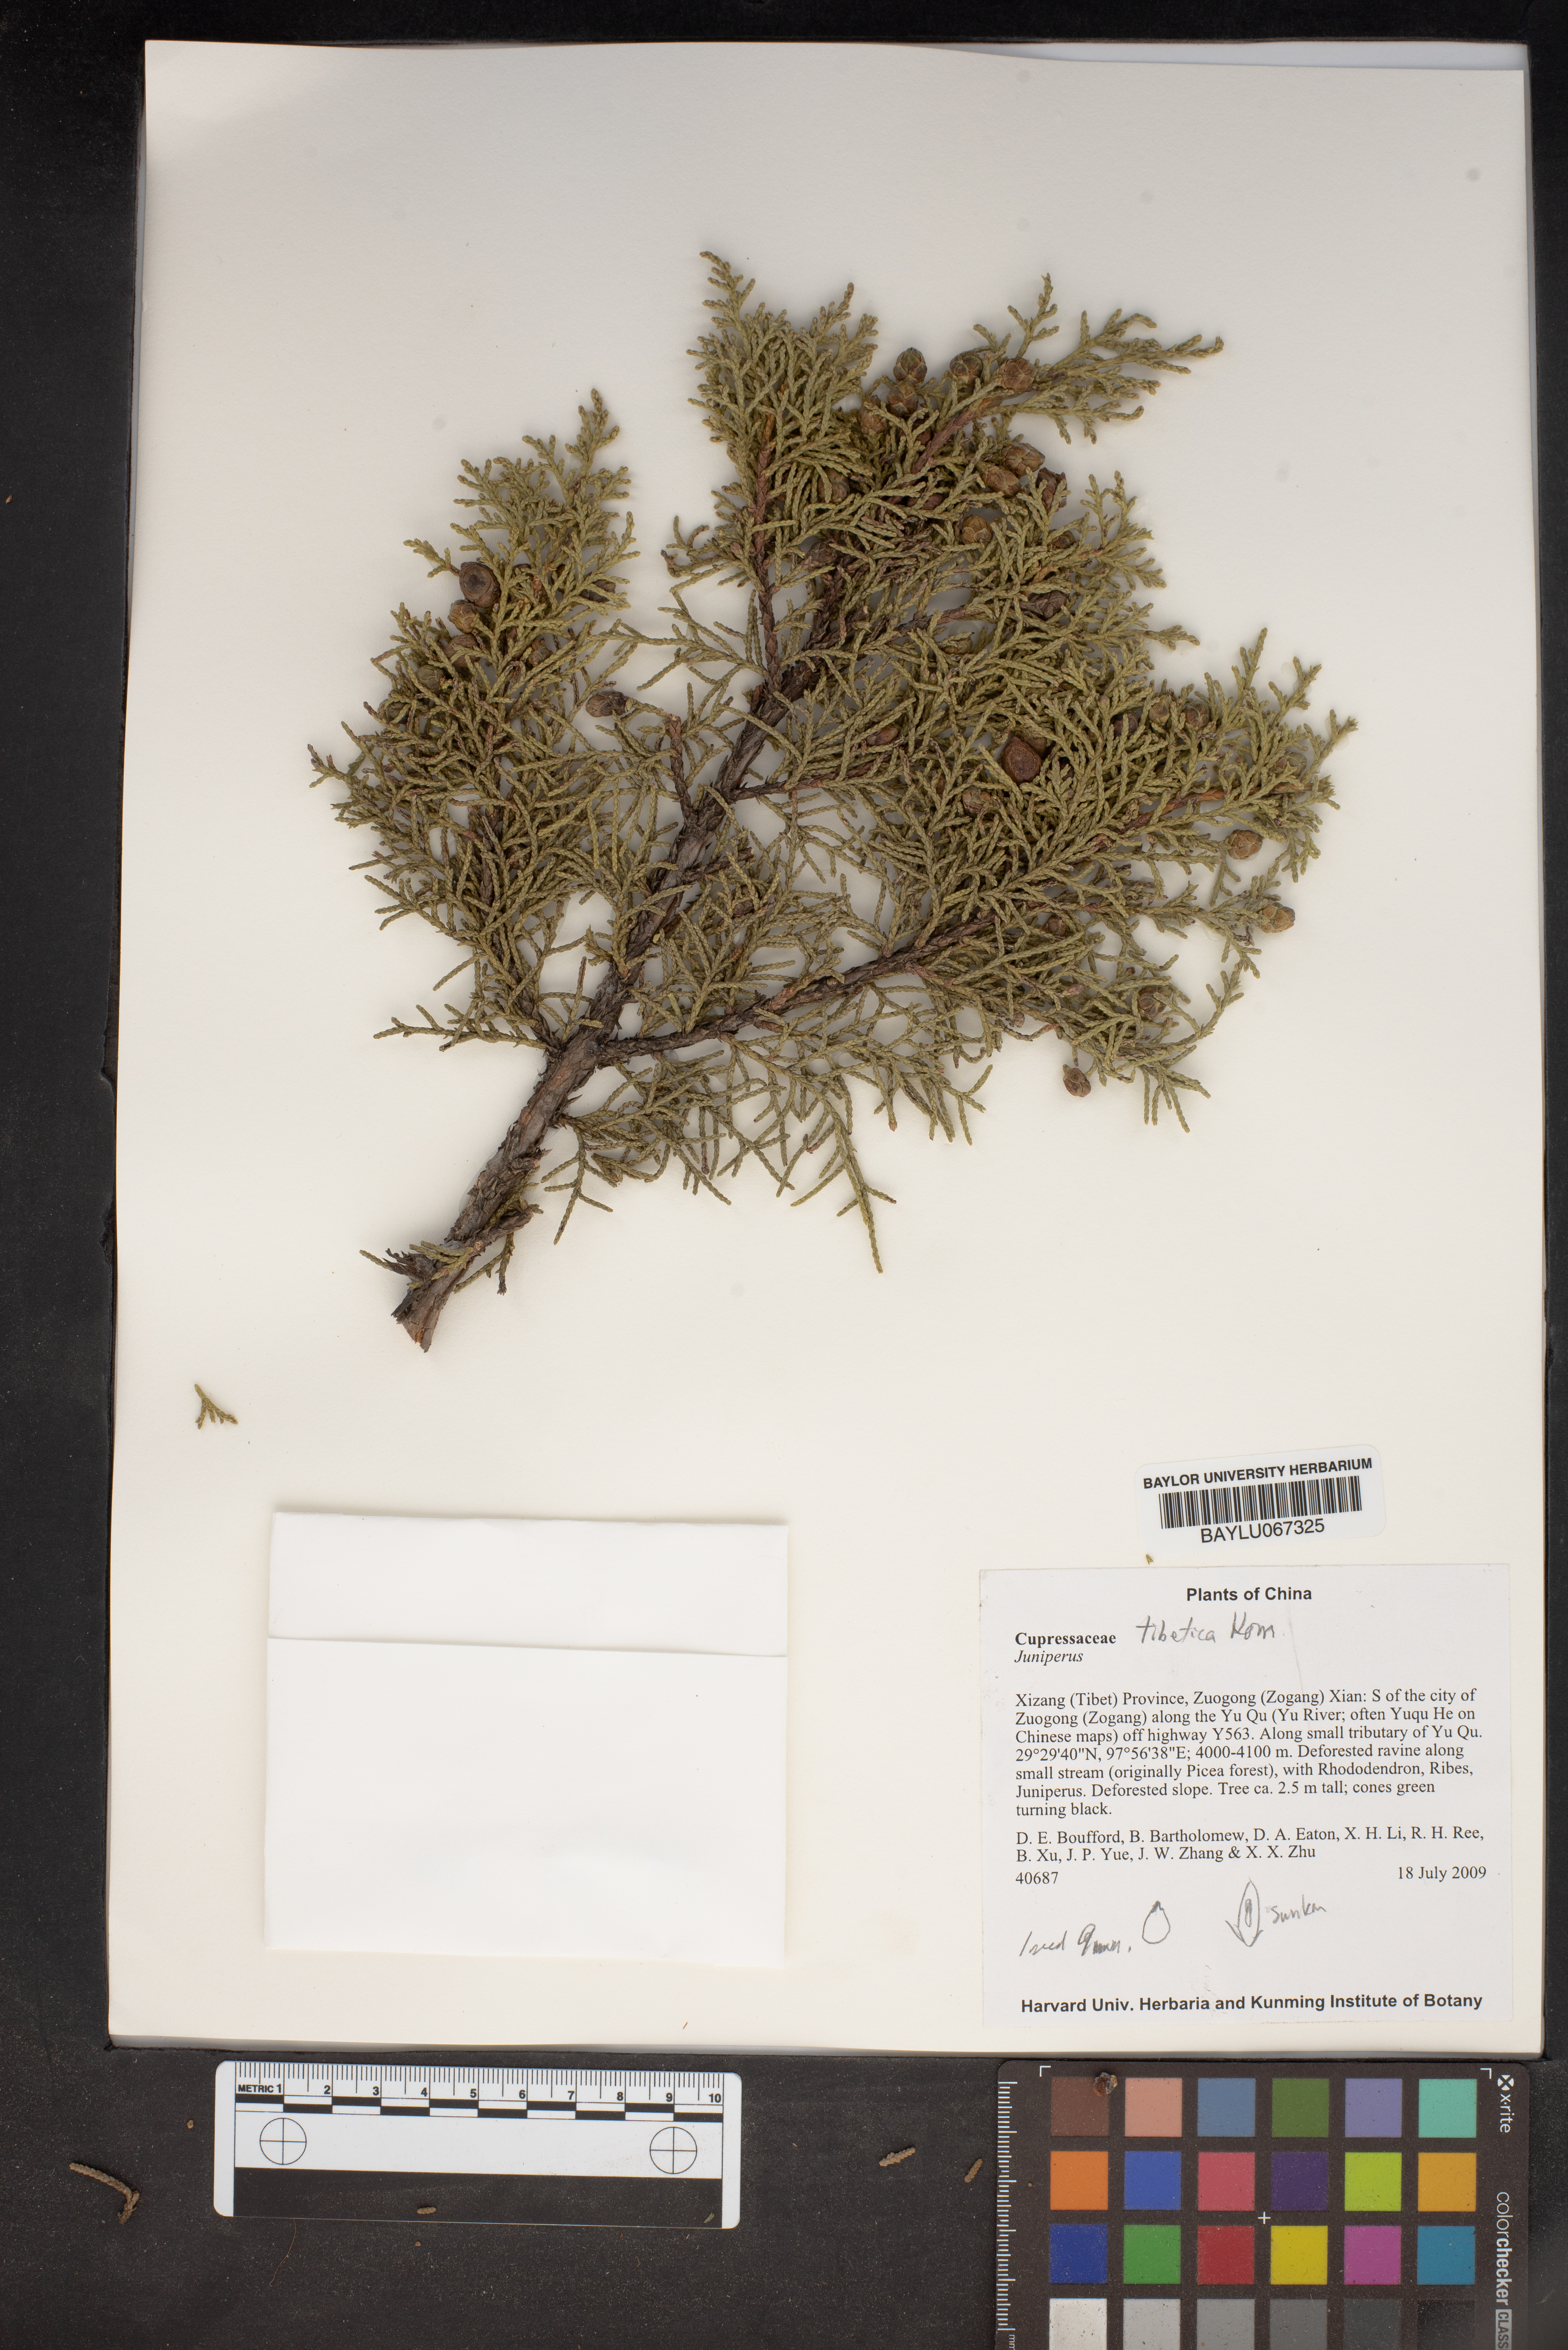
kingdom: Plantae
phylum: Tracheophyta
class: Pinopsida
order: Pinales
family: Cupressaceae
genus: Juniperus
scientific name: Juniperus
